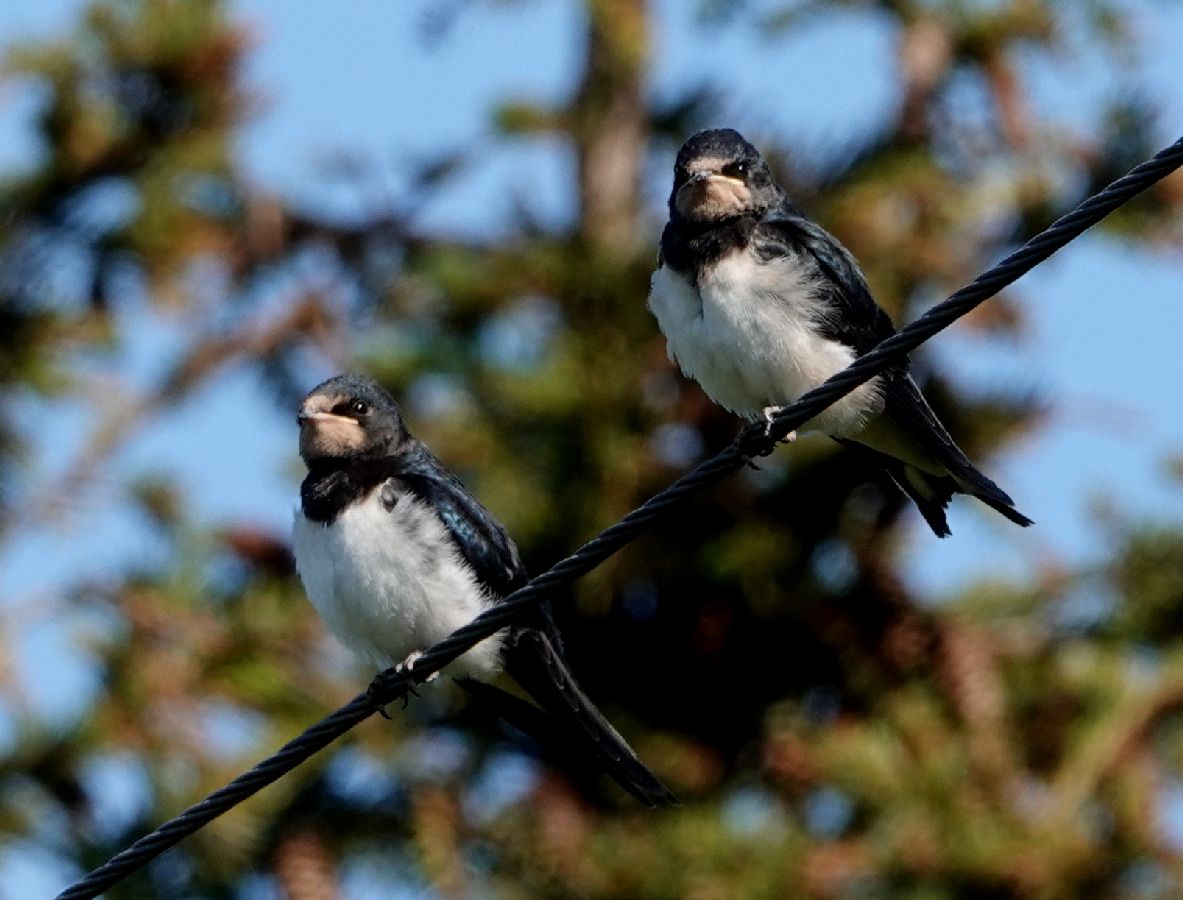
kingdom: Animalia
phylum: Chordata
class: Aves
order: Passeriformes
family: Hirundinidae
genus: Hirundo
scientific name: Hirundo rustica
